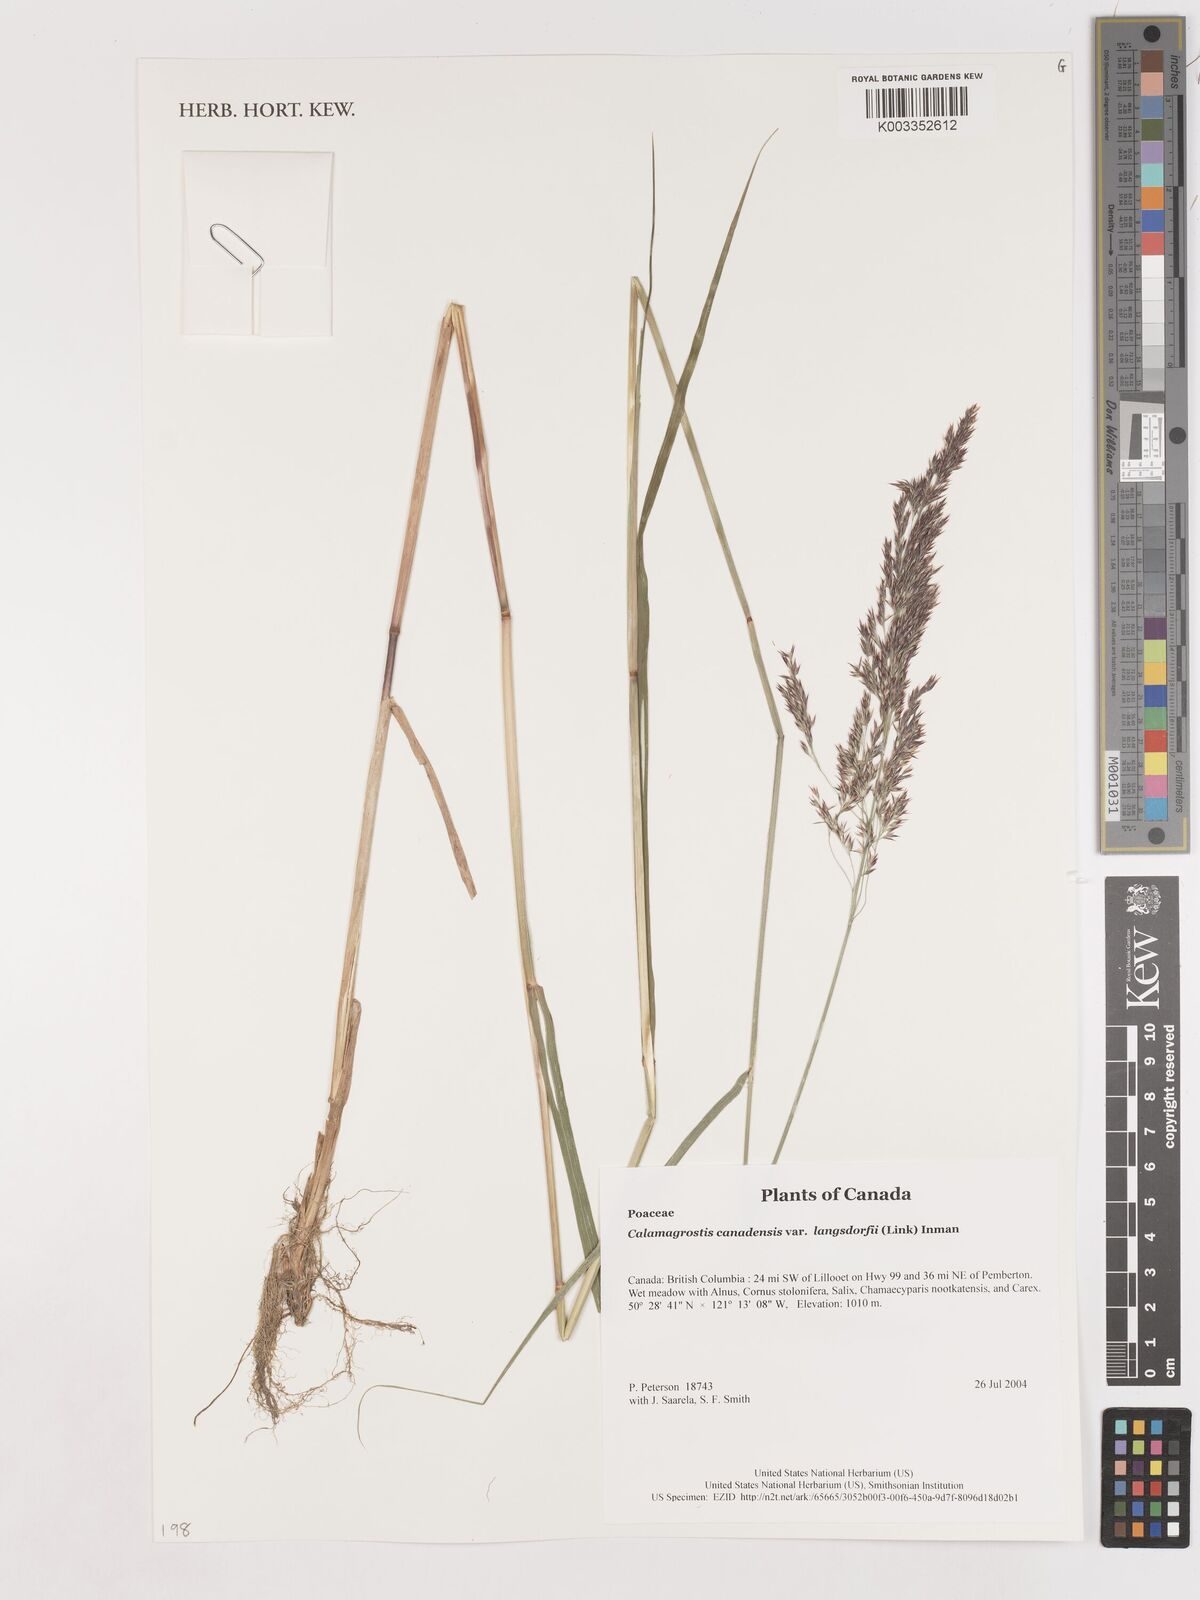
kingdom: Plantae
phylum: Tracheophyta
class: Liliopsida
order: Poales
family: Poaceae
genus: Calamagrostis
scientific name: Calamagrostis canadensis
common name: Canada bluejoint
